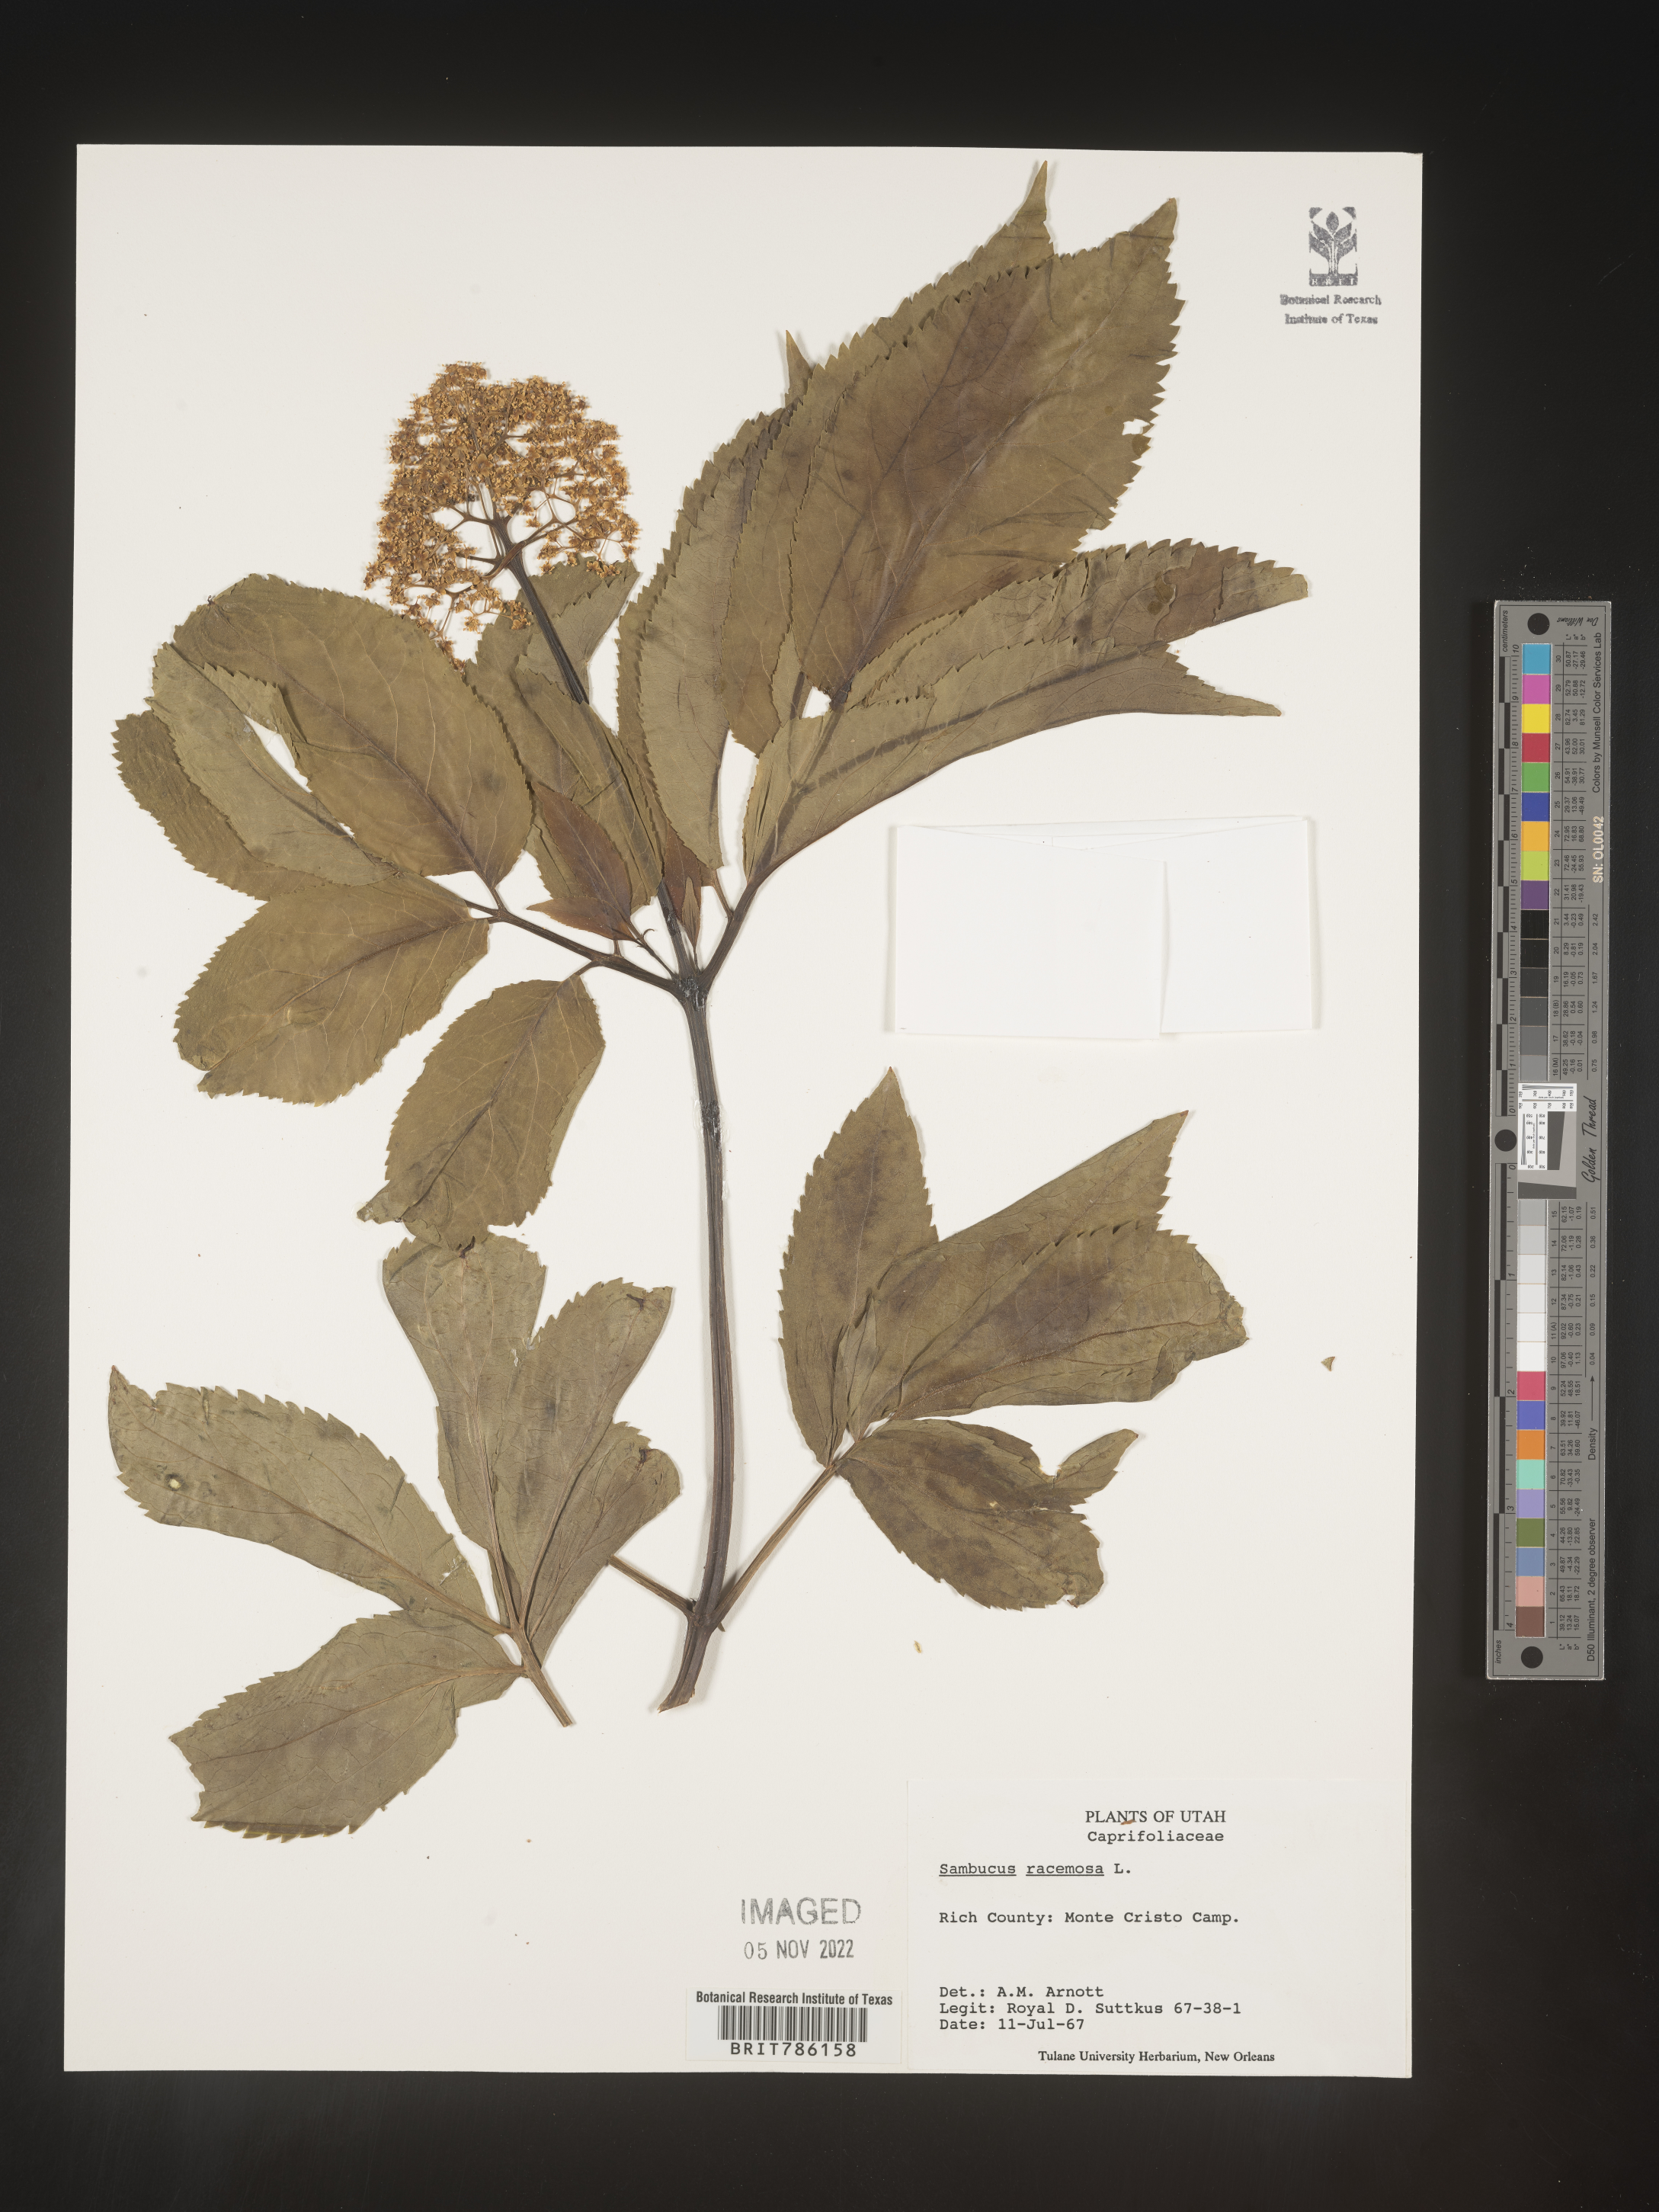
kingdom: Plantae
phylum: Tracheophyta
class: Magnoliopsida
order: Dipsacales
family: Viburnaceae
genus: Sambucus
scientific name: Sambucus
